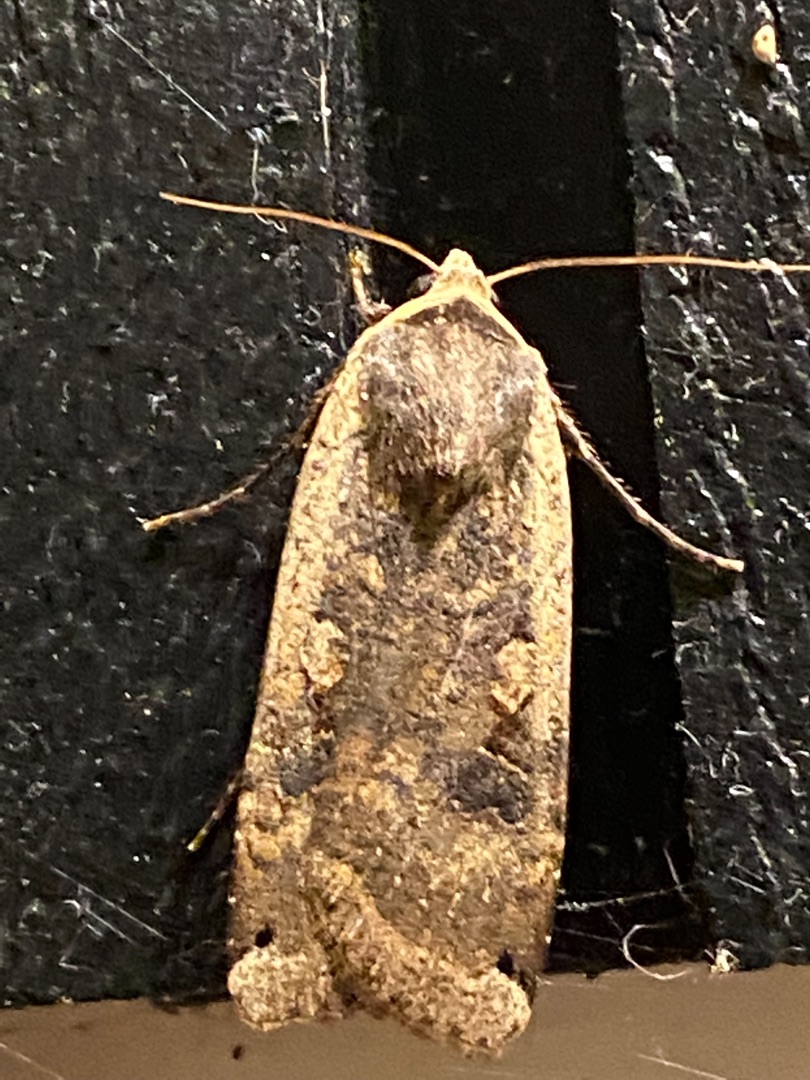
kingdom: Animalia
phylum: Arthropoda
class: Insecta
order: Lepidoptera
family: Noctuidae
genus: Noctua
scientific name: Noctua pronuba
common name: Stor smutugle
